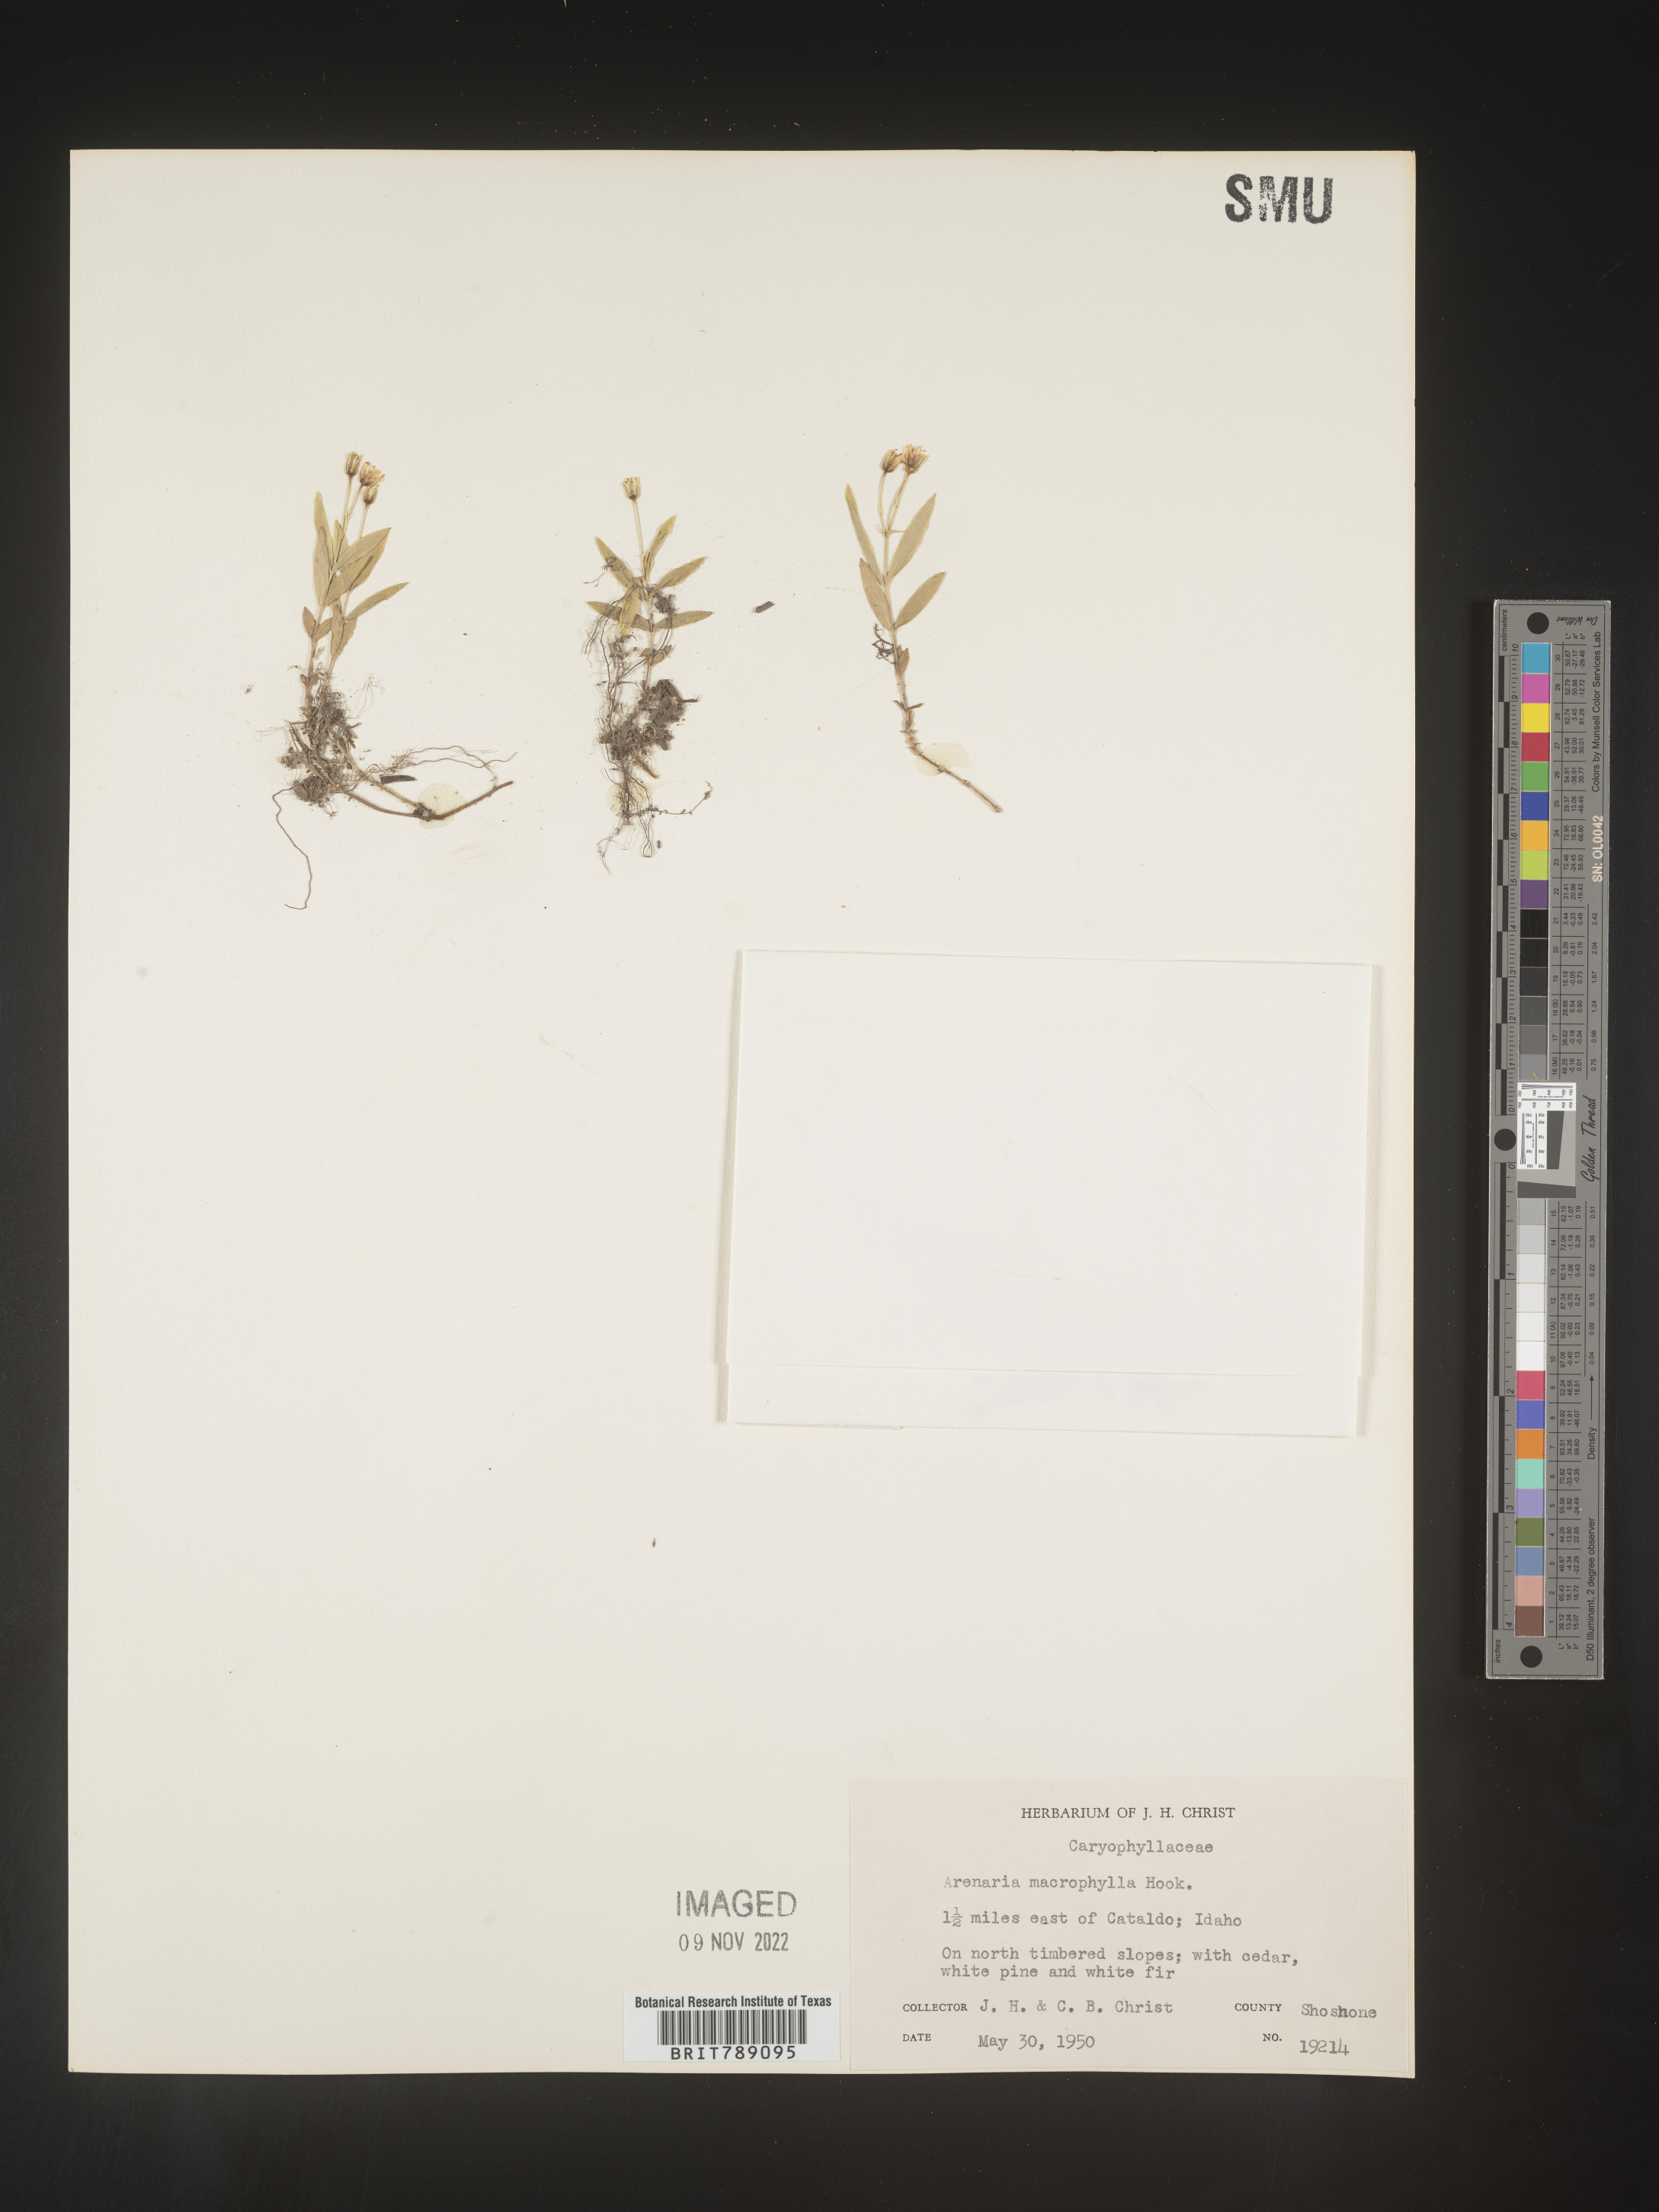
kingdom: Plantae
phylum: Tracheophyta
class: Magnoliopsida
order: Caryophyllales
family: Caryophyllaceae
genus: Arenaria
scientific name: Arenaria
